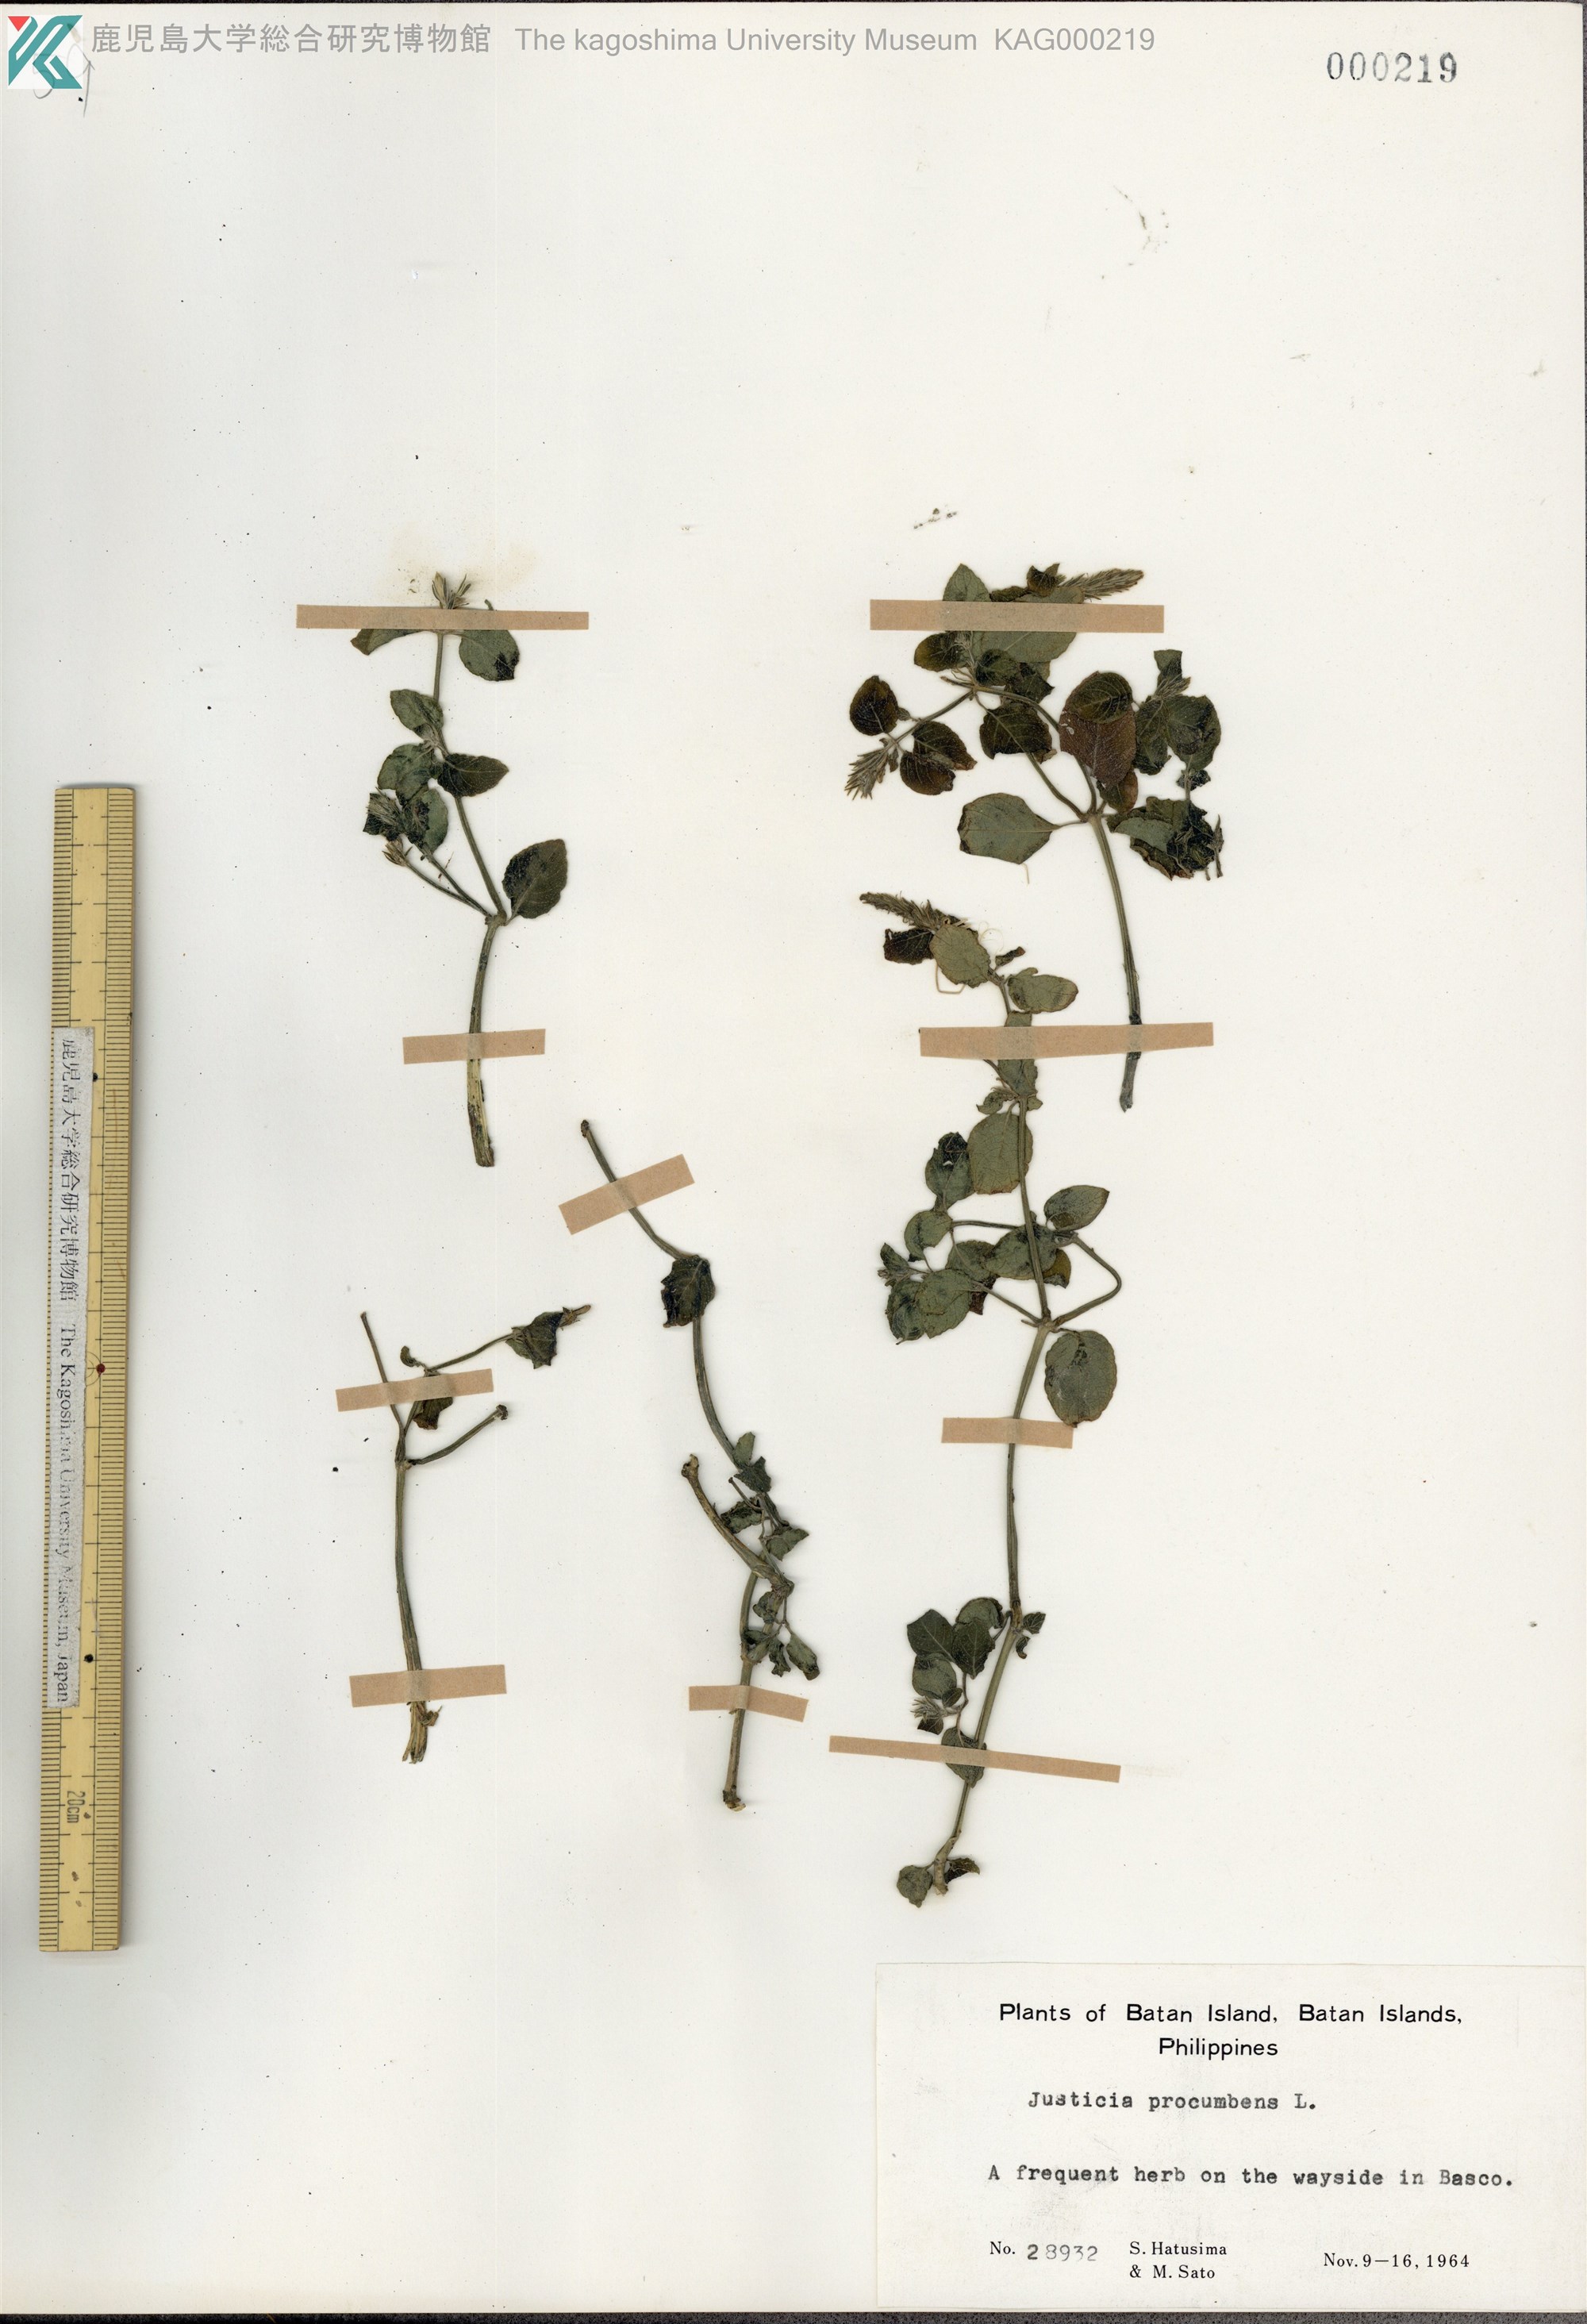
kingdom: Plantae
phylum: Tracheophyta
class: Magnoliopsida
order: Lamiales
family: Acanthaceae
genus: Rostellularia
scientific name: Rostellularia procumbens
